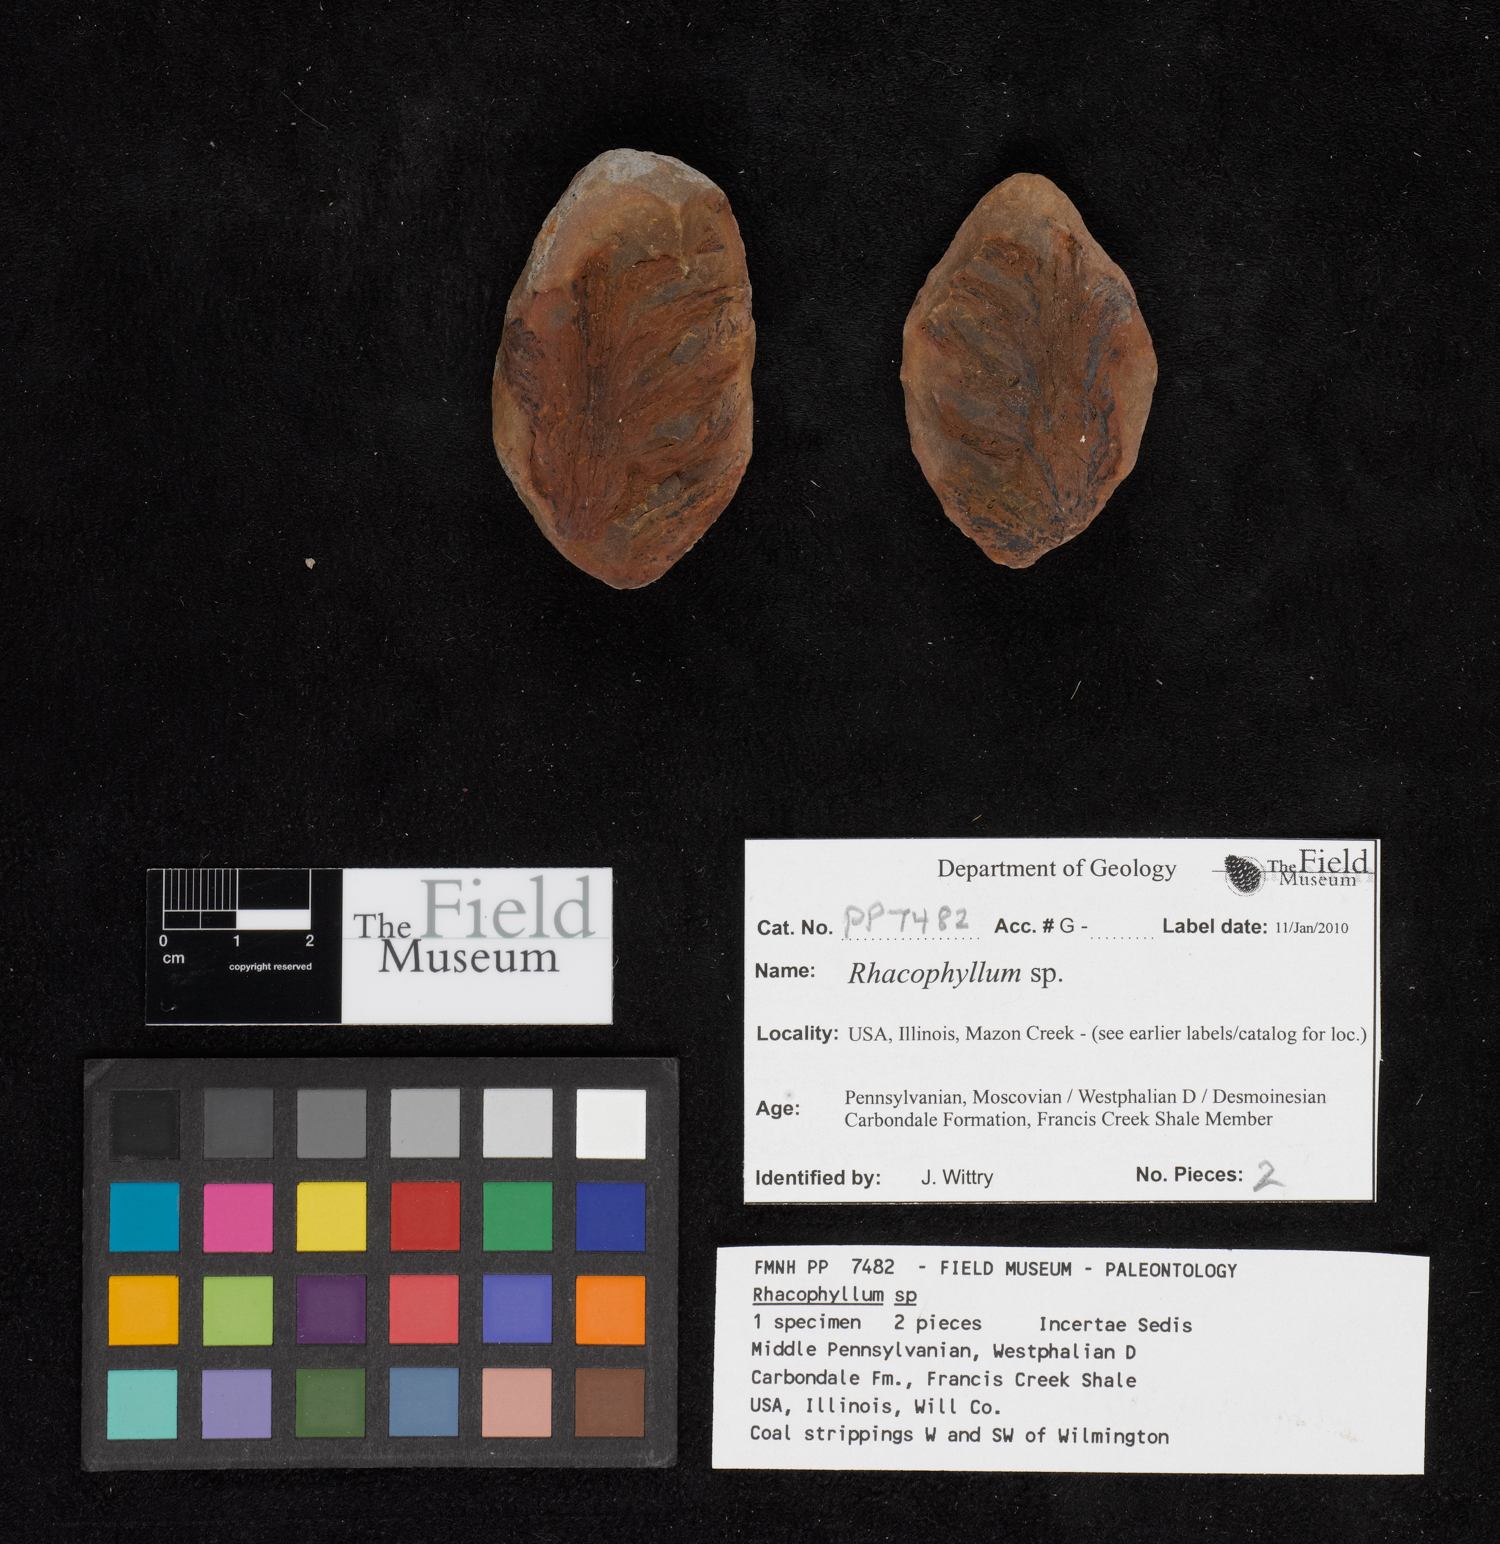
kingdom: Plantae
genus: Rhacophyllum
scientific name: Rhacophyllum
